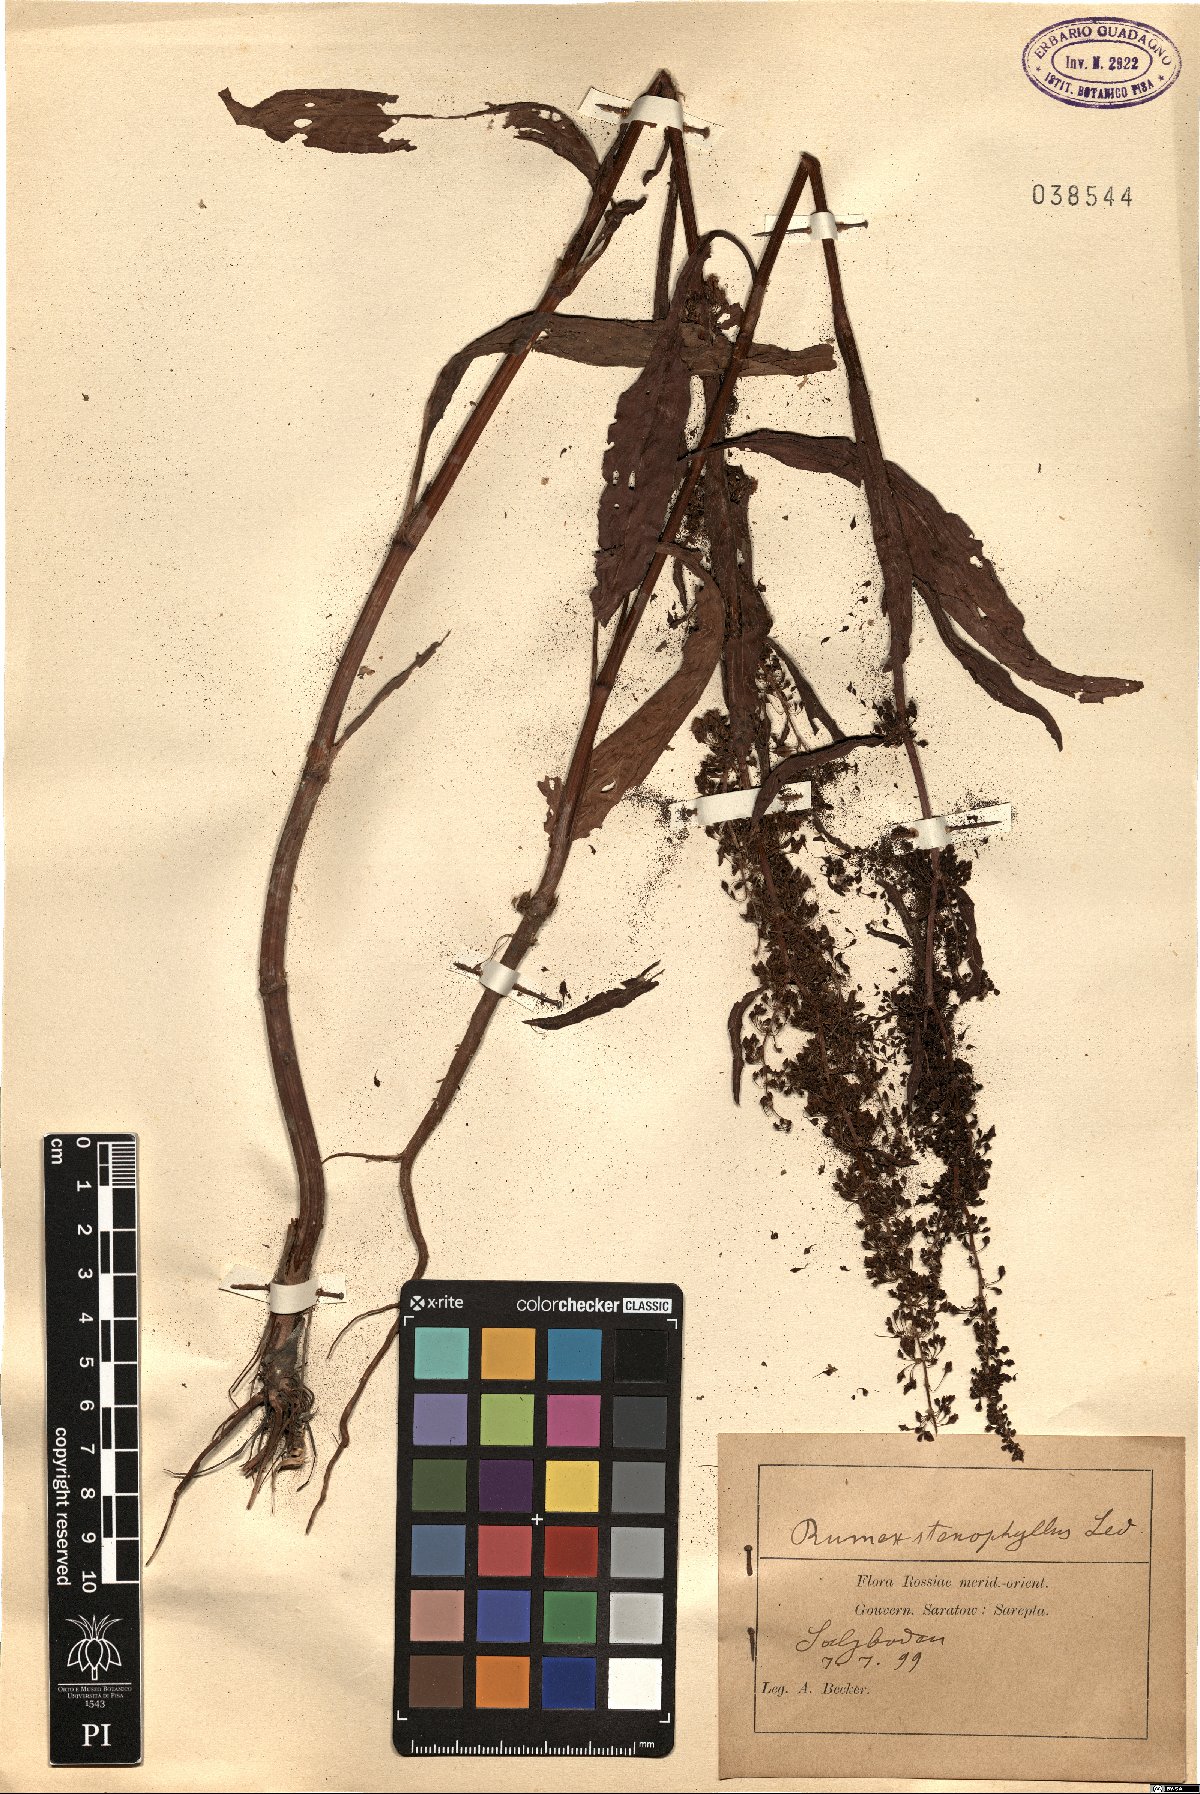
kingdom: Plantae
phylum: Tracheophyta
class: Magnoliopsida
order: Caryophyllales
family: Polygonaceae
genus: Rumex
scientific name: Rumex stenophyllus
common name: Narrowleaf dock
